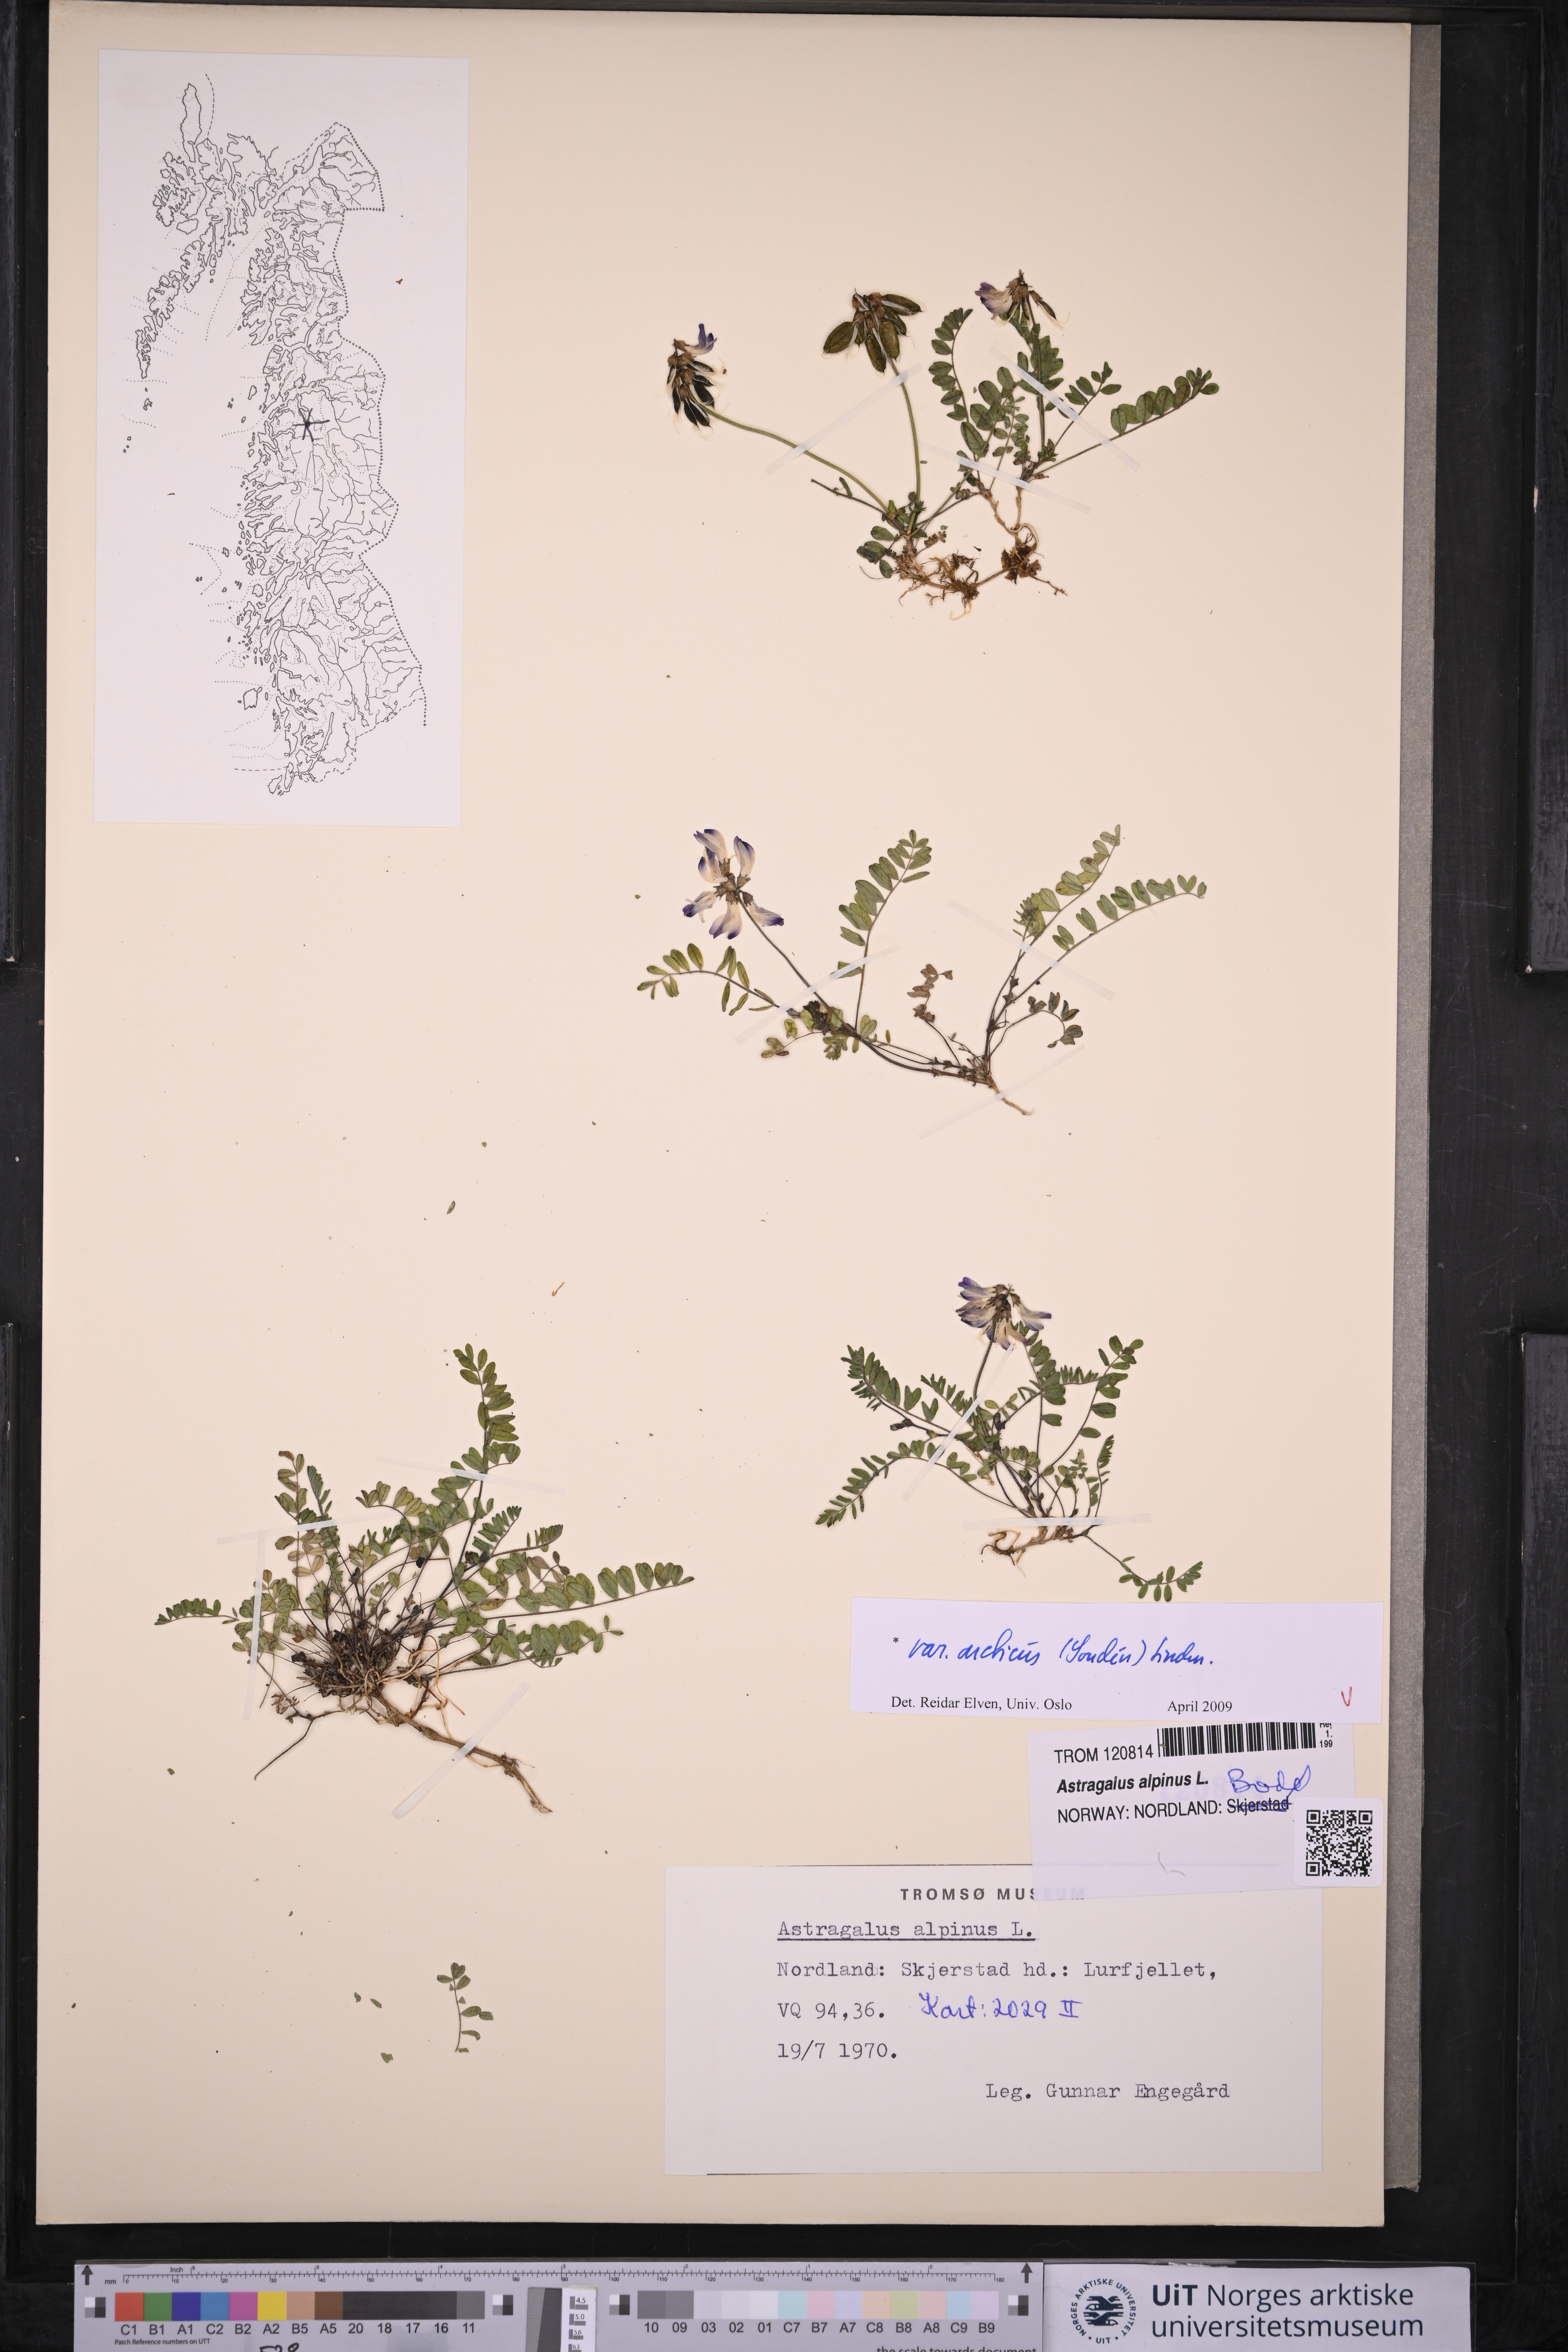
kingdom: Plantae
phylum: Tracheophyta
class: Magnoliopsida
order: Fabales
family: Fabaceae
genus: Astragalus
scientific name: Astragalus norvegicus
